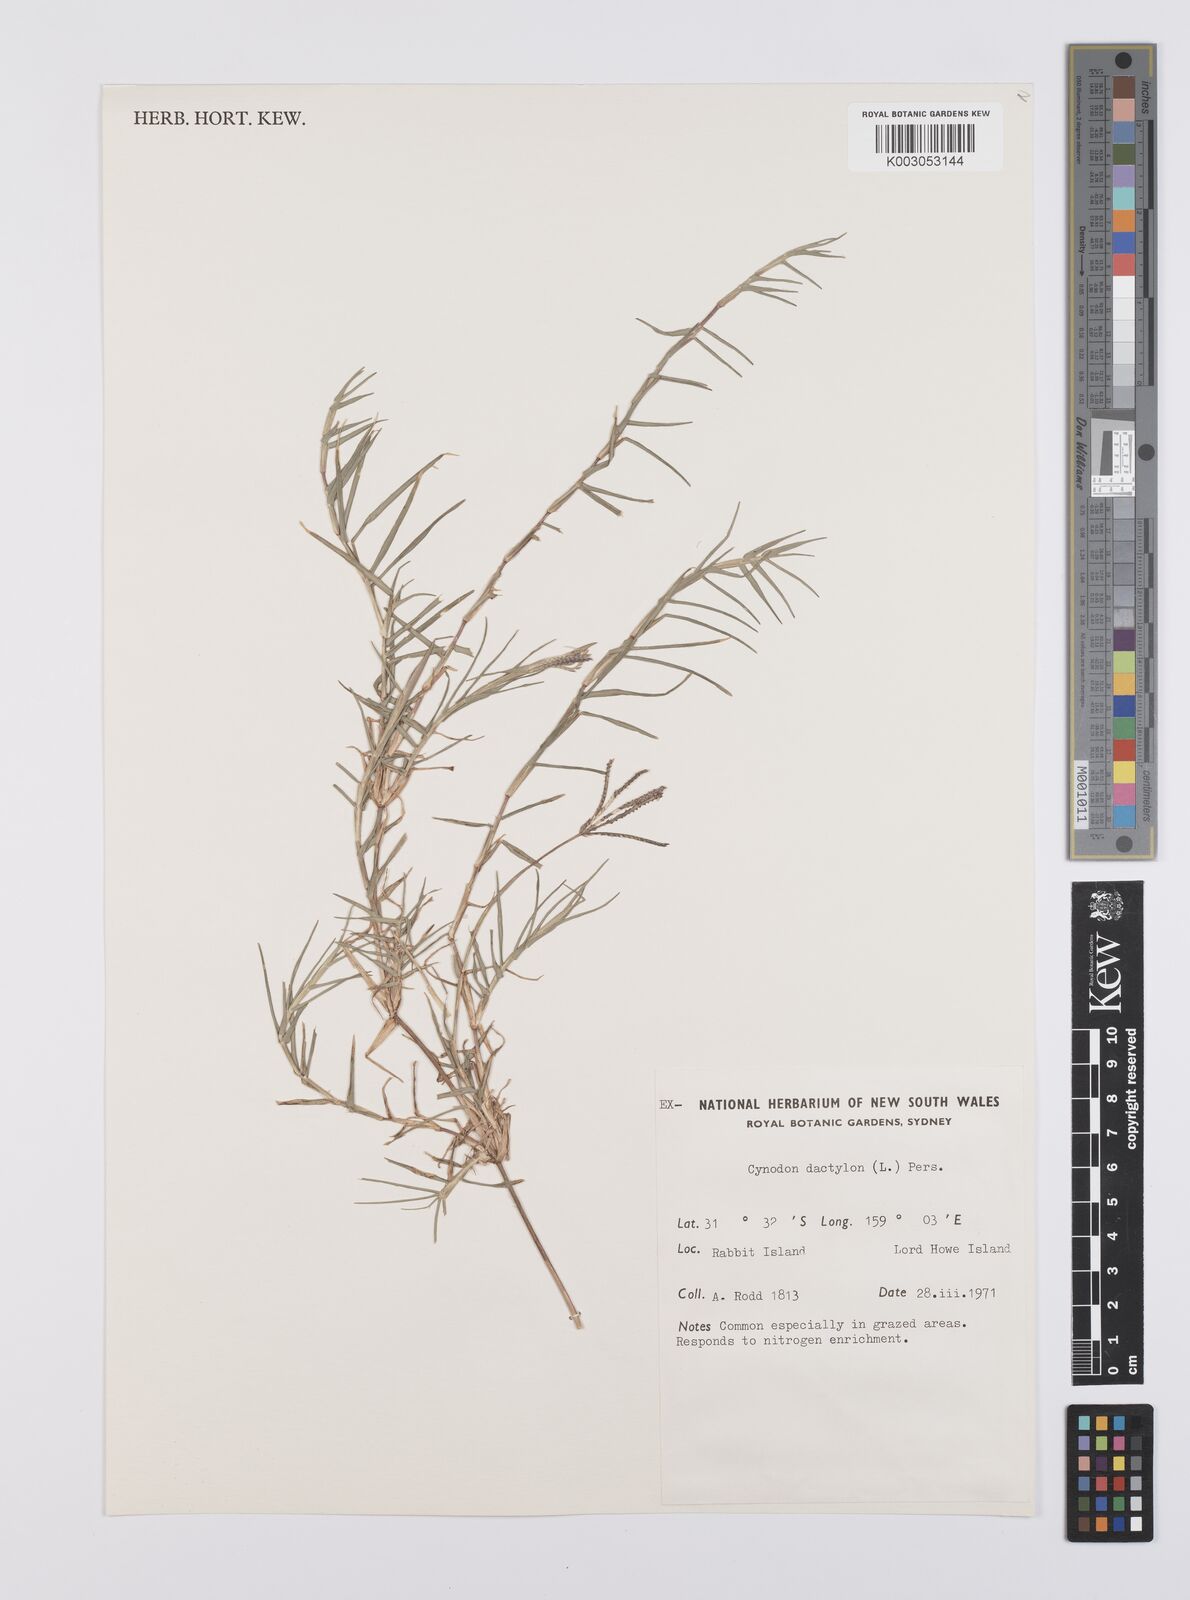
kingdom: Plantae
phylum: Tracheophyta
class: Liliopsida
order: Poales
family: Poaceae
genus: Cynodon
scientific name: Cynodon dactylon
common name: Bermuda grass
